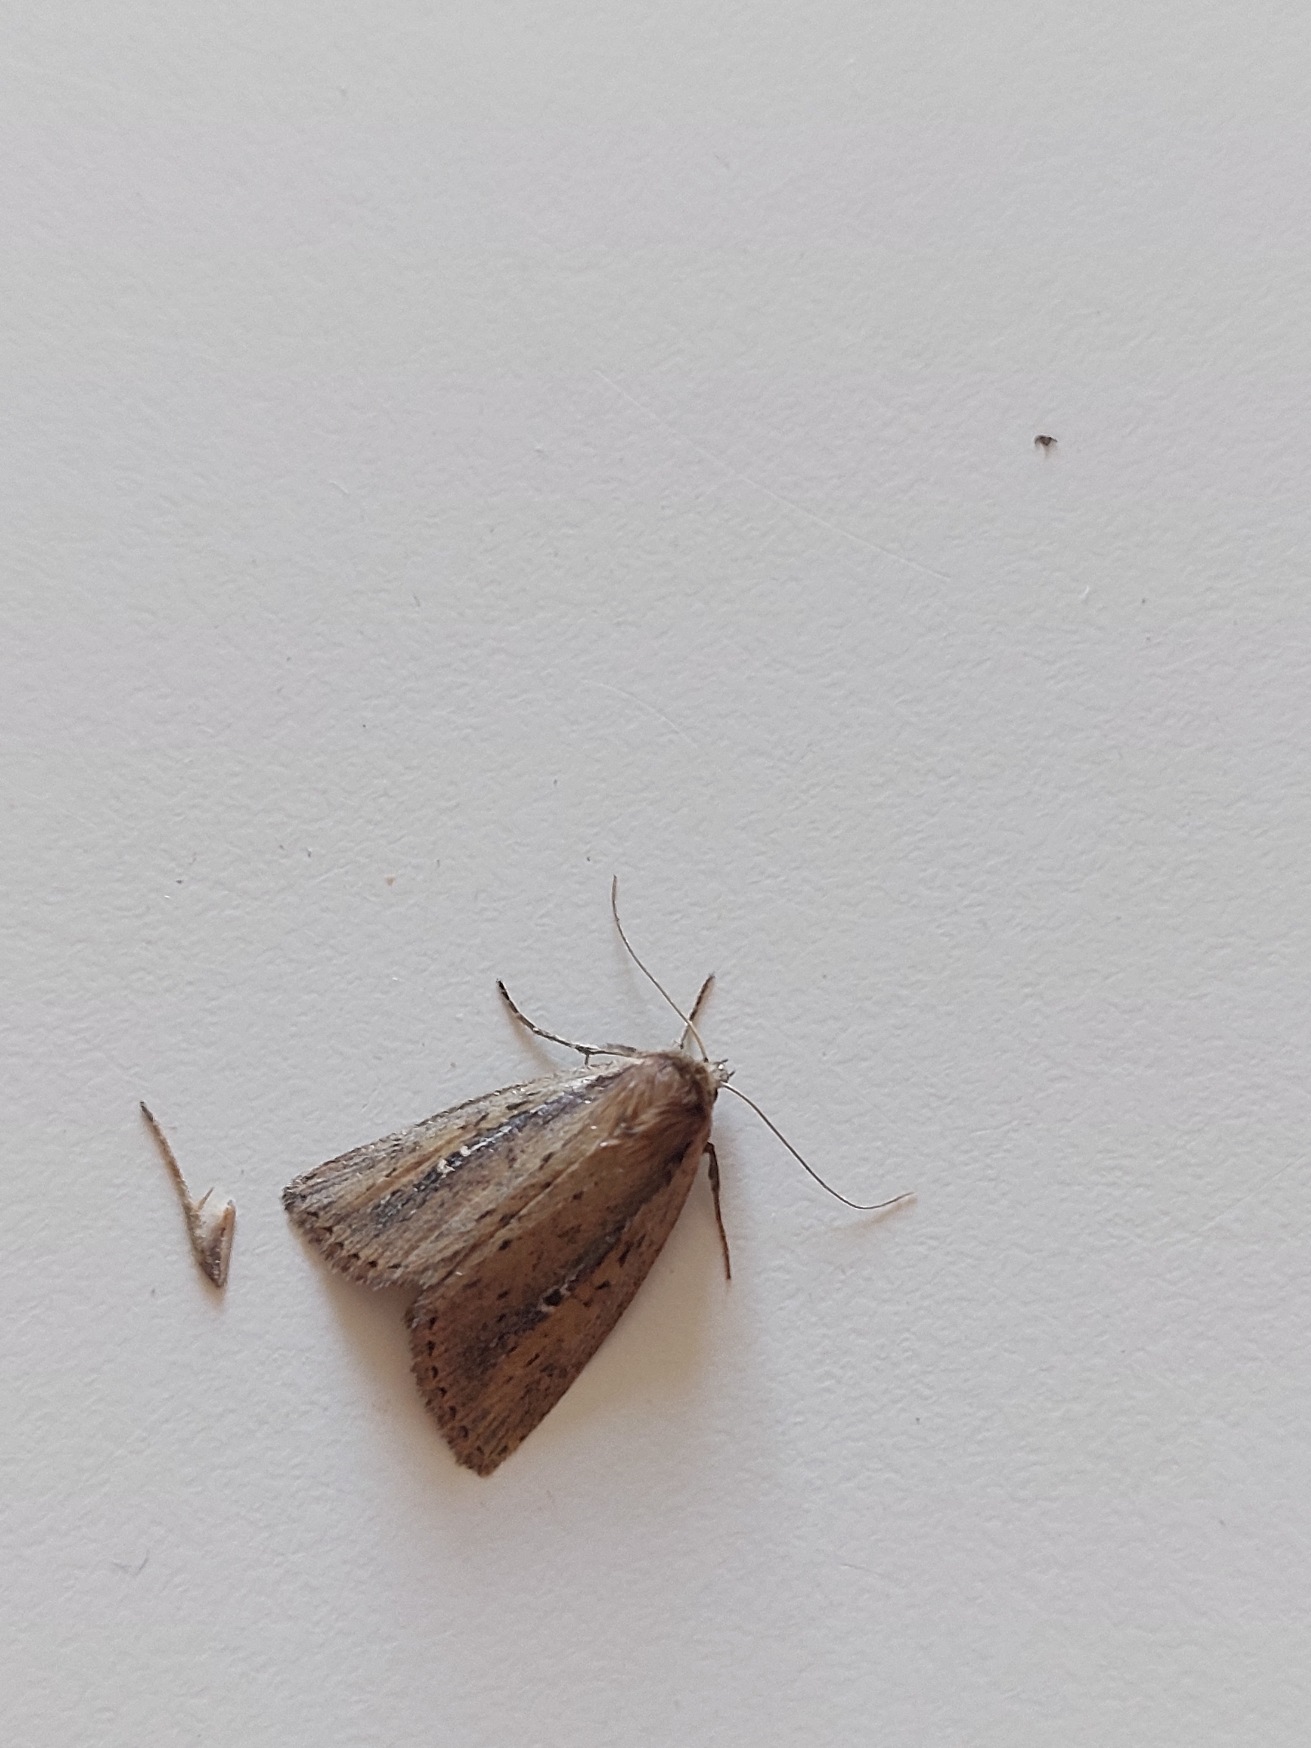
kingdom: Animalia
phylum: Arthropoda
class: Insecta
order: Lepidoptera
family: Noctuidae
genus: Archanara
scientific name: Archanara dissoluta
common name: Grånakket sivugle
